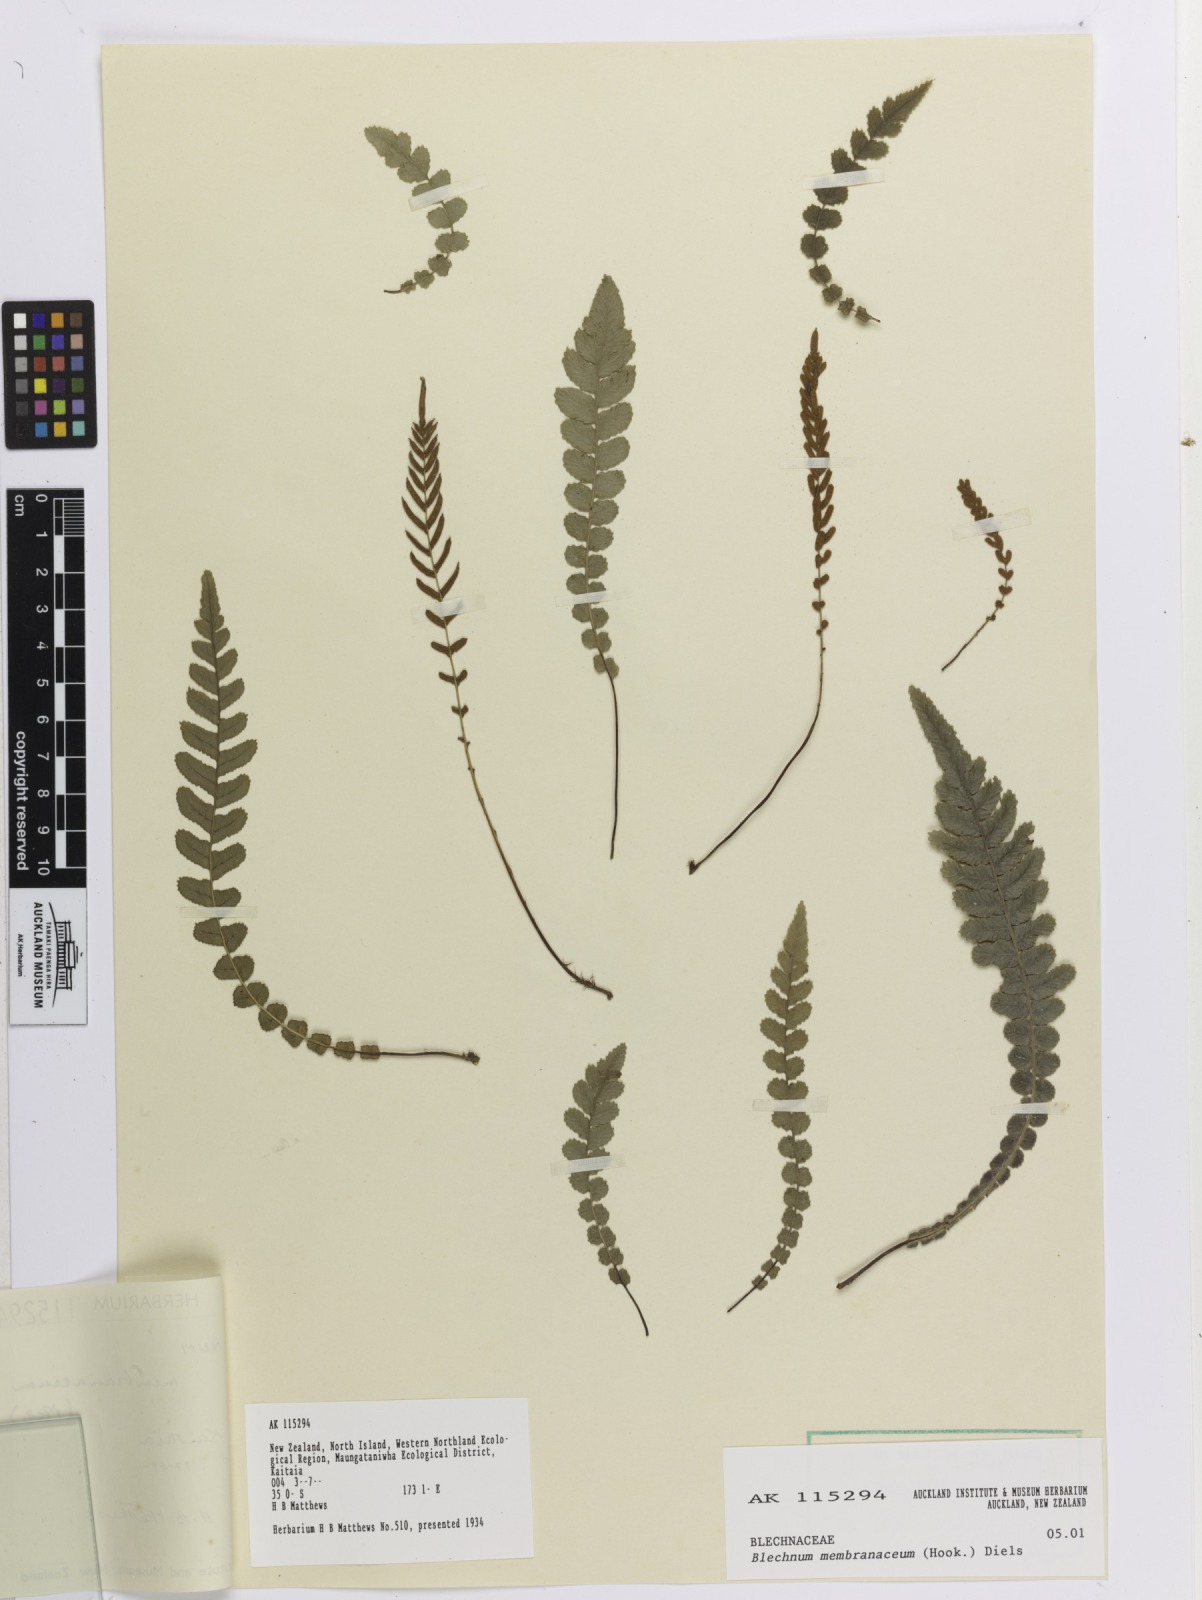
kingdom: Plantae
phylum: Tracheophyta
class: Polypodiopsida
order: Polypodiales
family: Blechnaceae
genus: Austroblechnum
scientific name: Austroblechnum membranaceum
